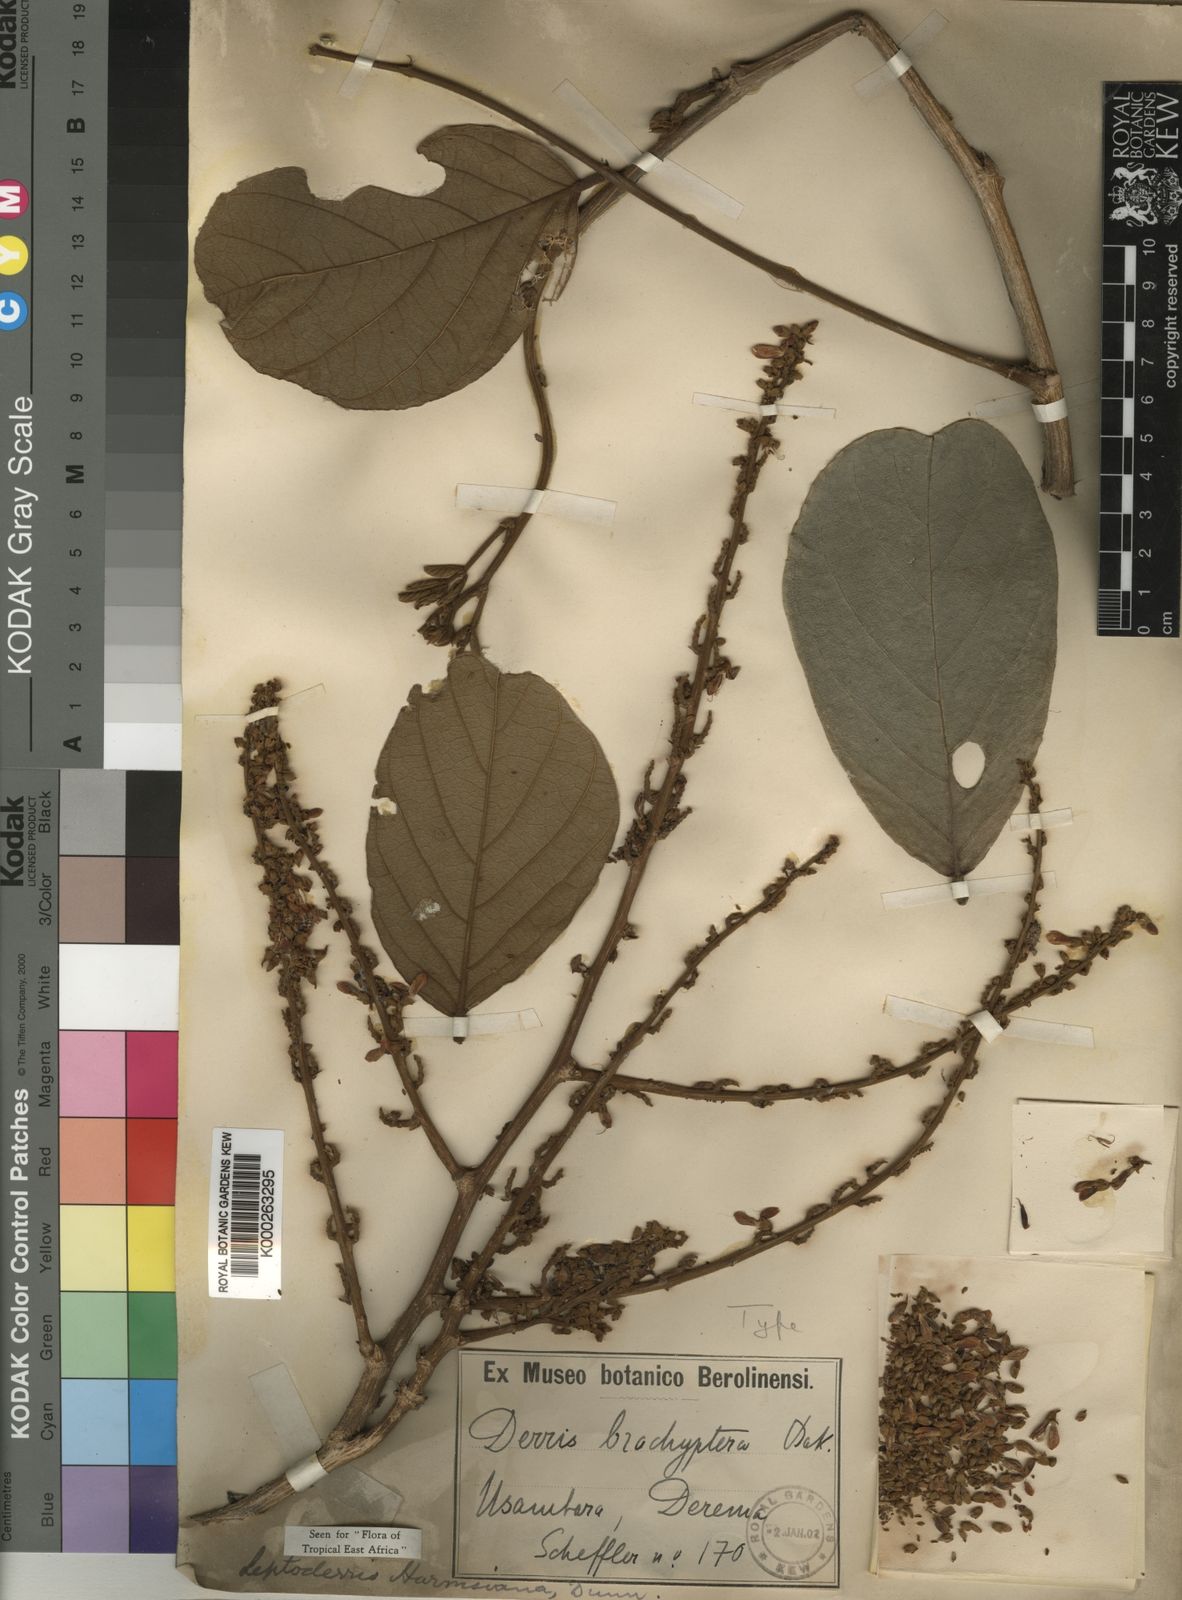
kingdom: Plantae
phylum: Tracheophyta
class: Magnoliopsida
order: Fabales
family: Fabaceae
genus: Leptoderris
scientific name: Leptoderris harmsiana
